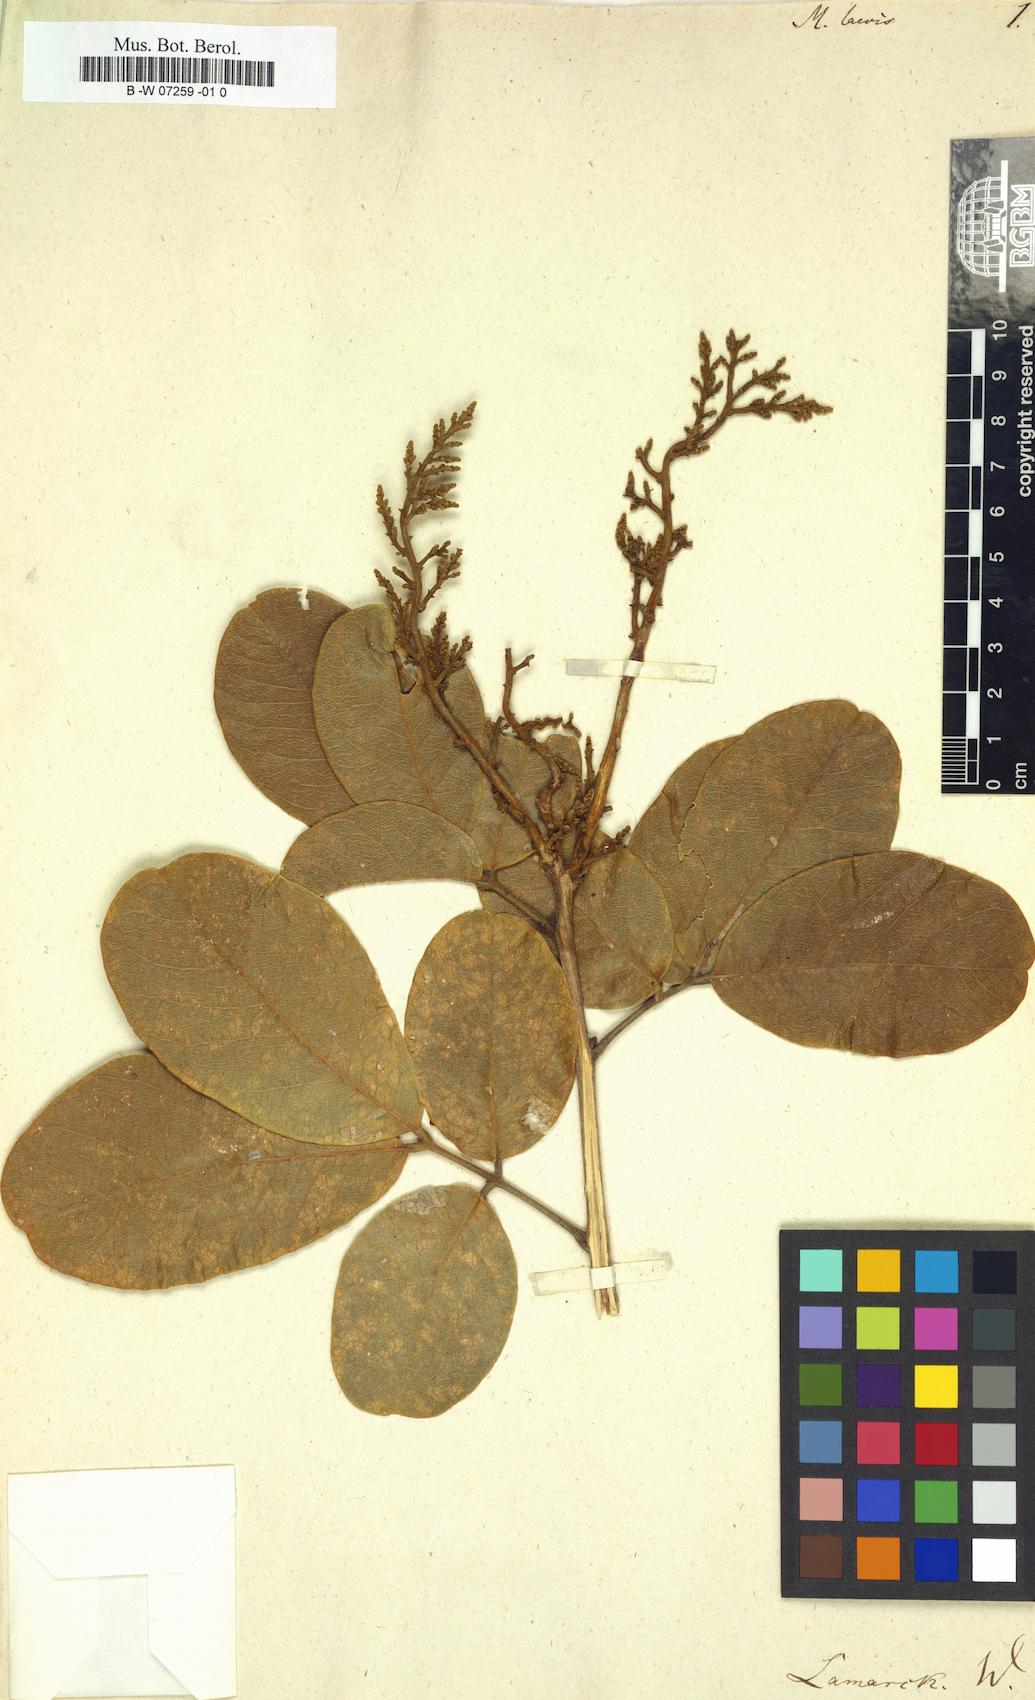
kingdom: Plantae
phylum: Tracheophyta
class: Magnoliopsida
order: Sapindales
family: Sapindaceae
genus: Molinaea
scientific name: Molinaea laevis
